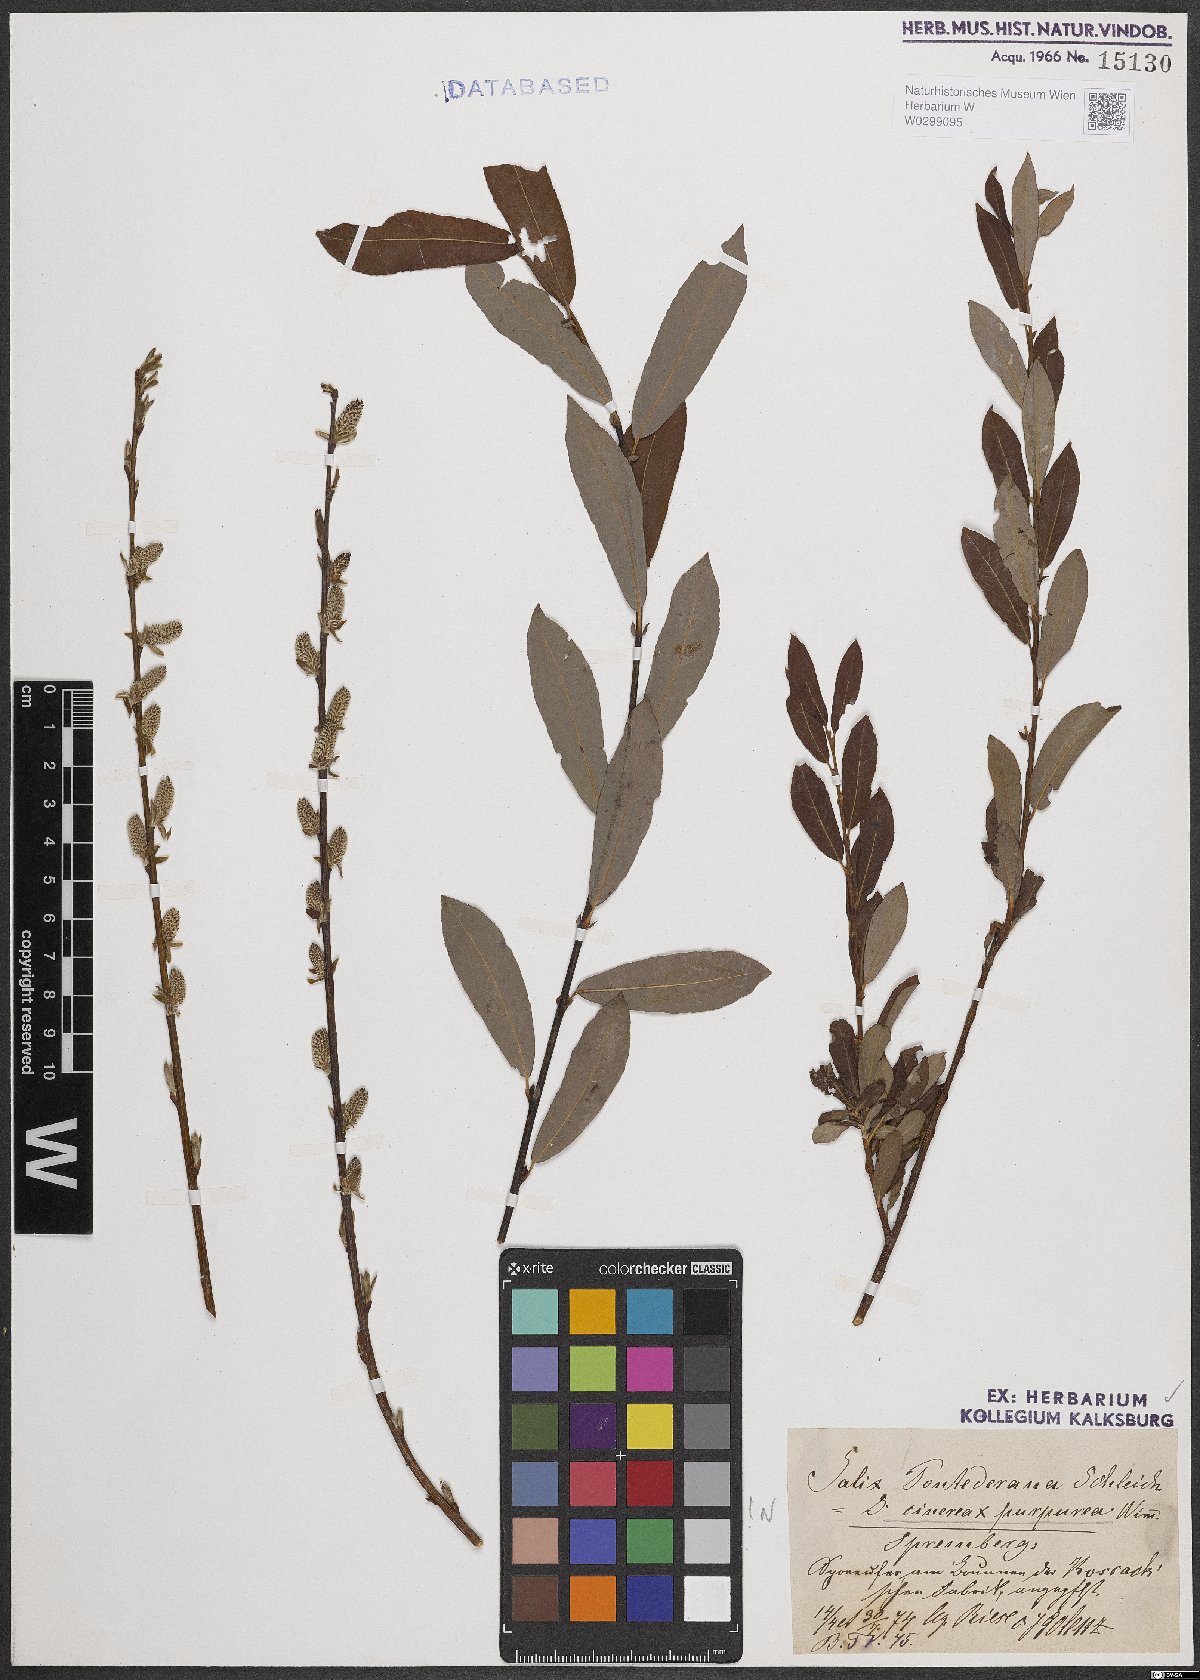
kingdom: Plantae
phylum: Tracheophyta
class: Magnoliopsida
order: Malpighiales
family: Salicaceae
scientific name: Salicaceae
